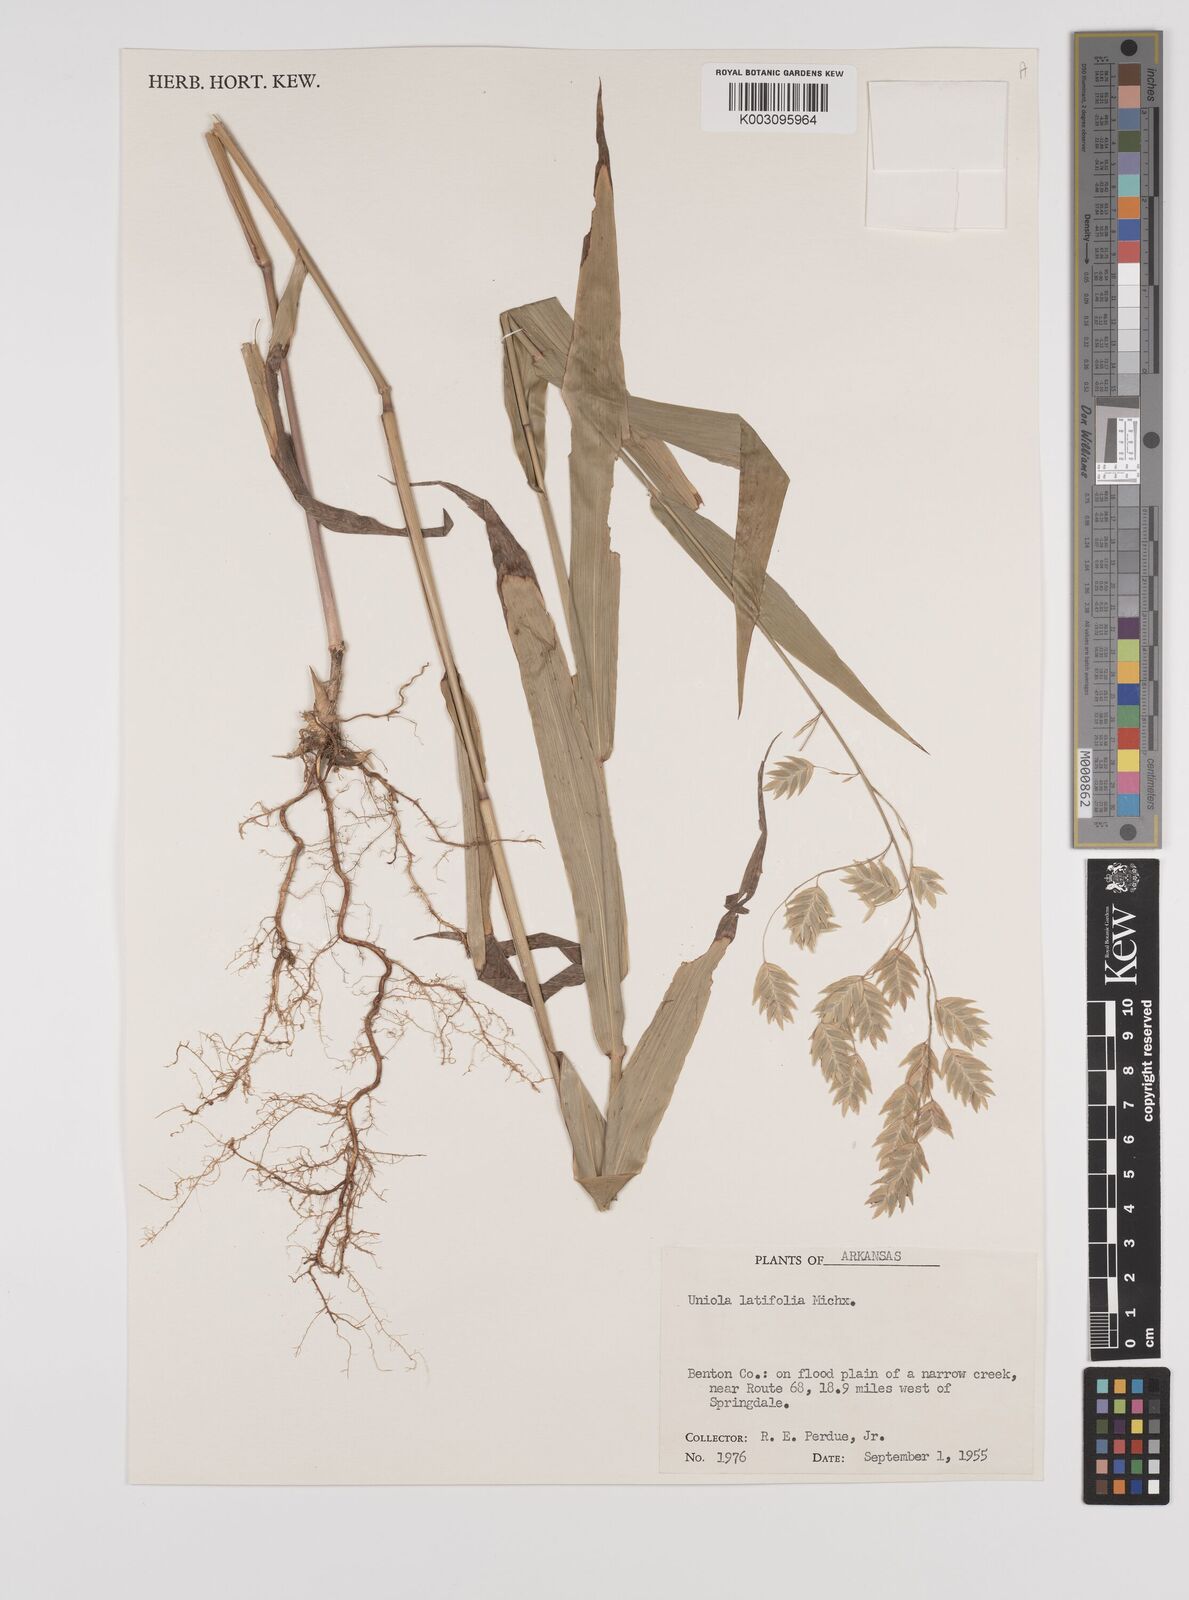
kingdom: Plantae
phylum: Tracheophyta
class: Liliopsida
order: Poales
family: Poaceae
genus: Chasmanthium
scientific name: Chasmanthium latifolium
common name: Broad-leaved chasmanthium
